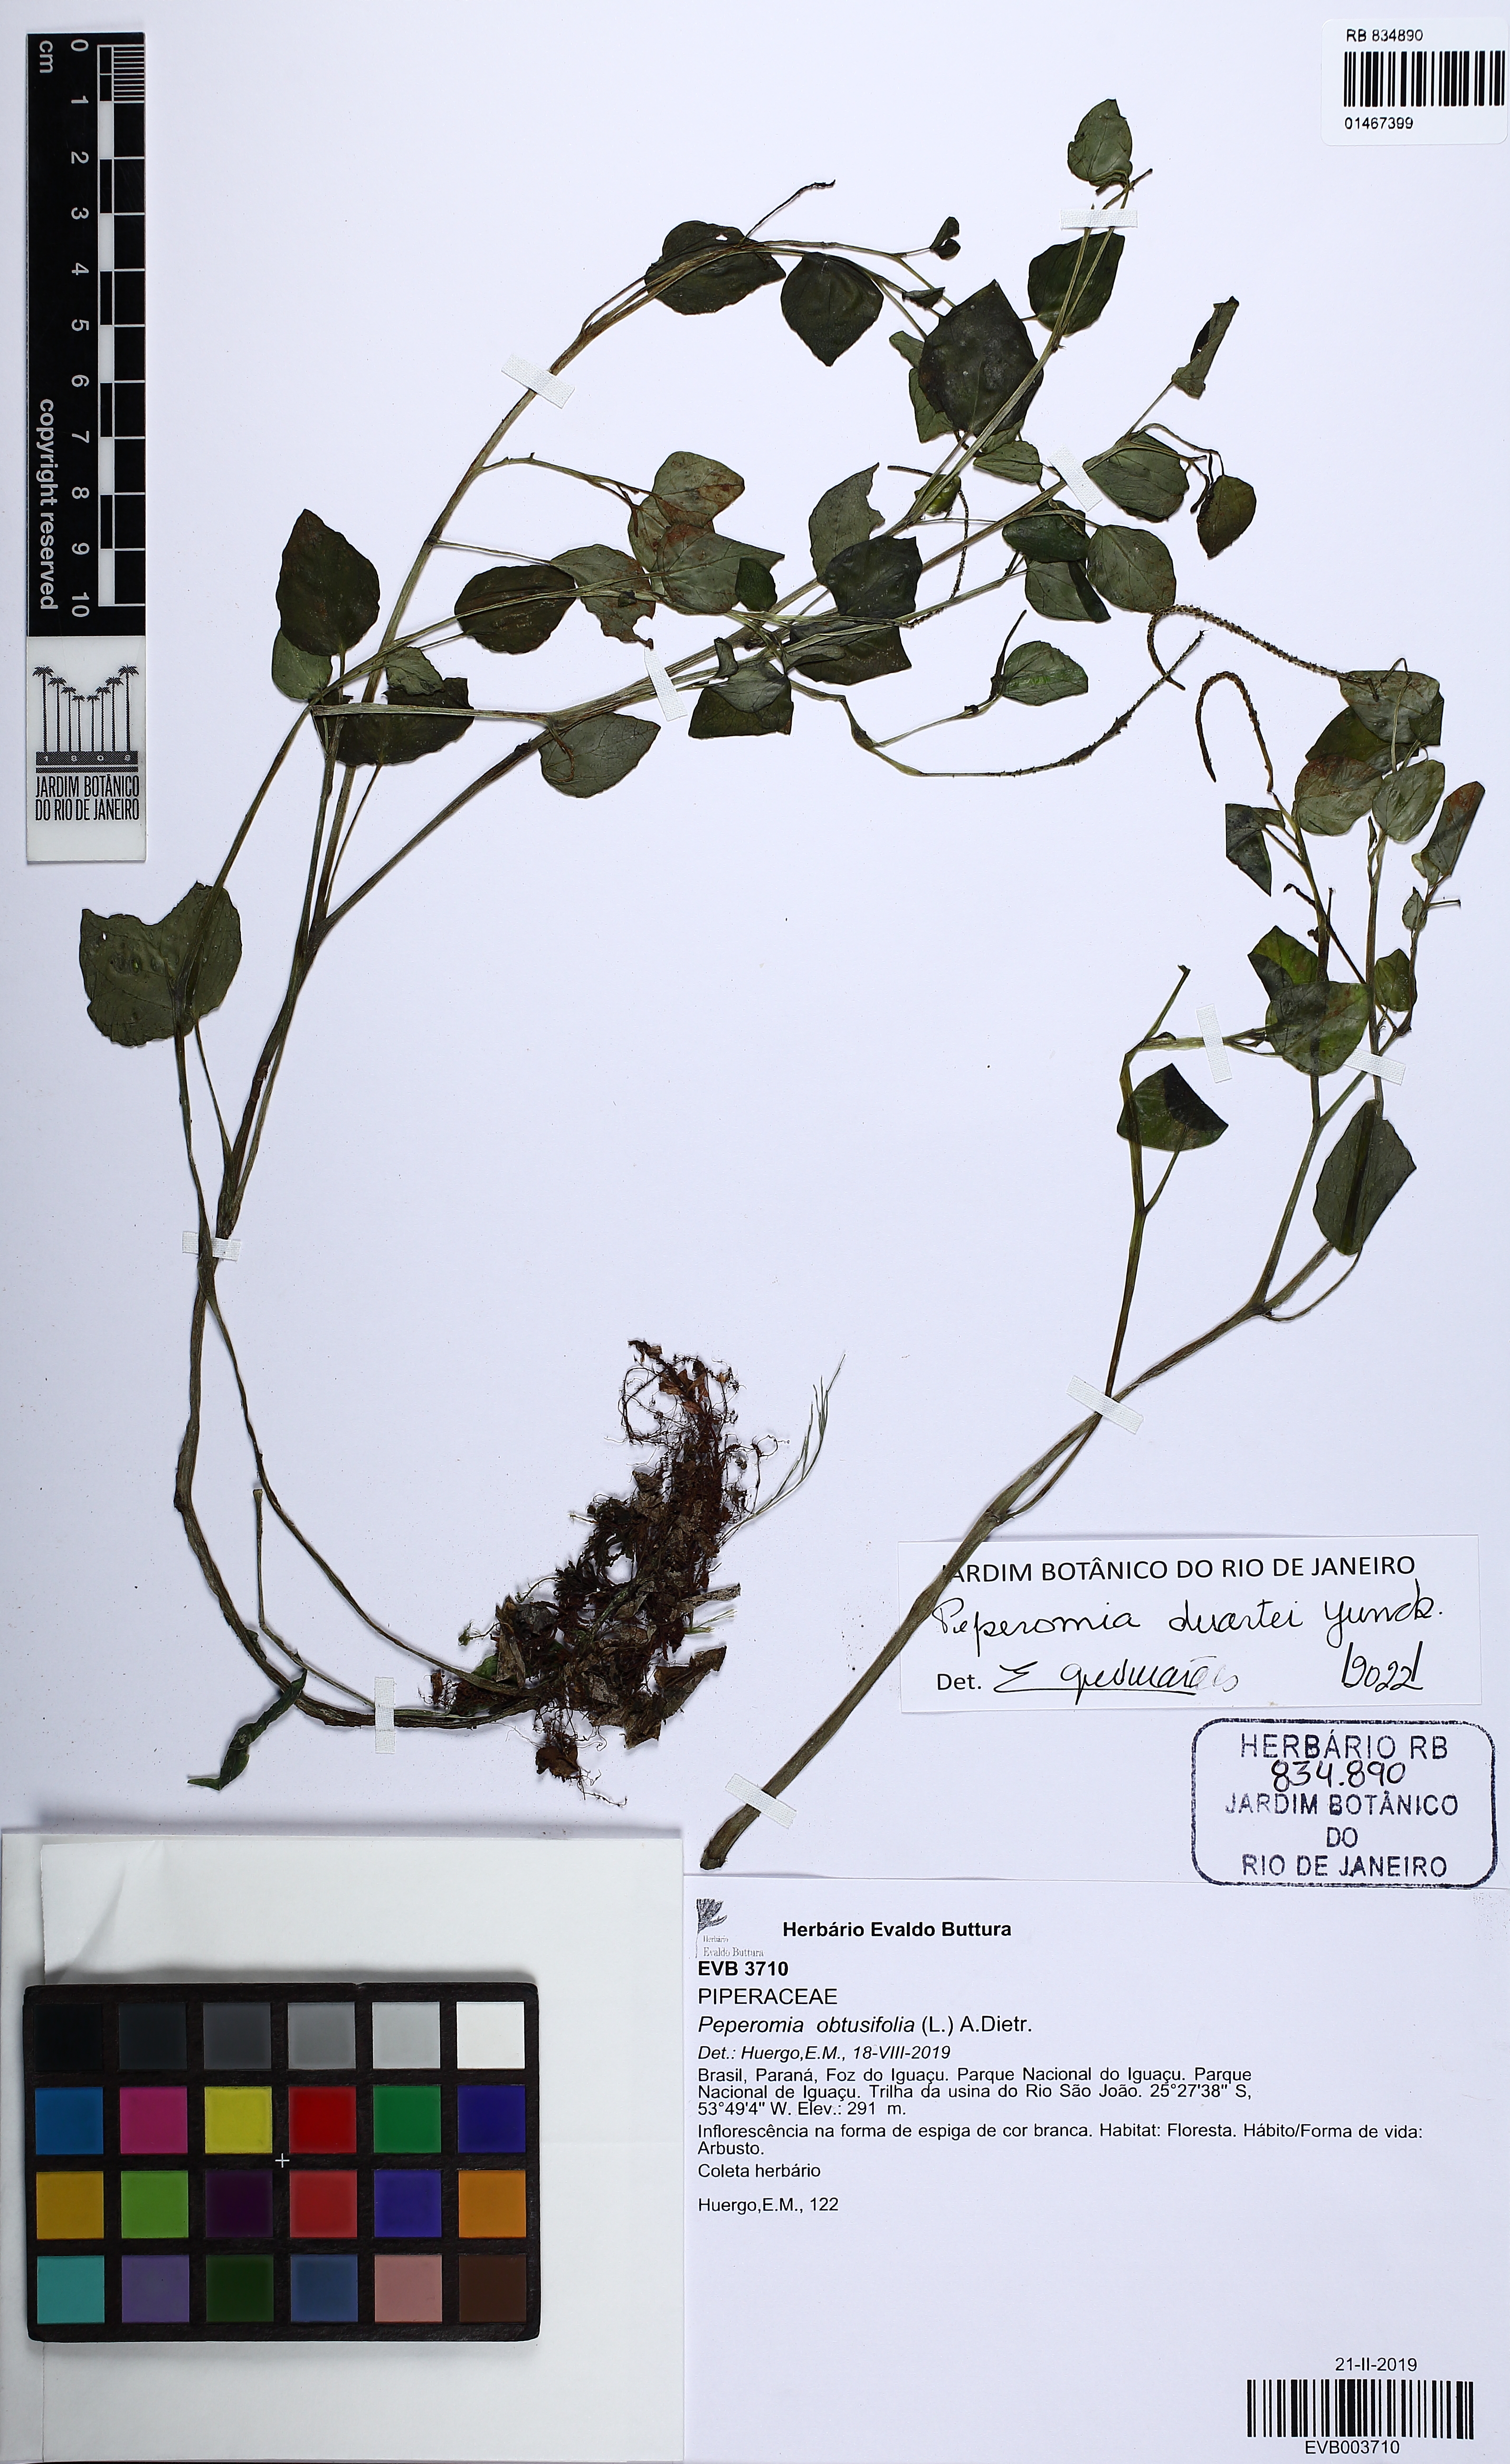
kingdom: Plantae
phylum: Tracheophyta
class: Magnoliopsida
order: Piperales
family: Piperaceae
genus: Peperomia
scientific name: Peperomia duartei
